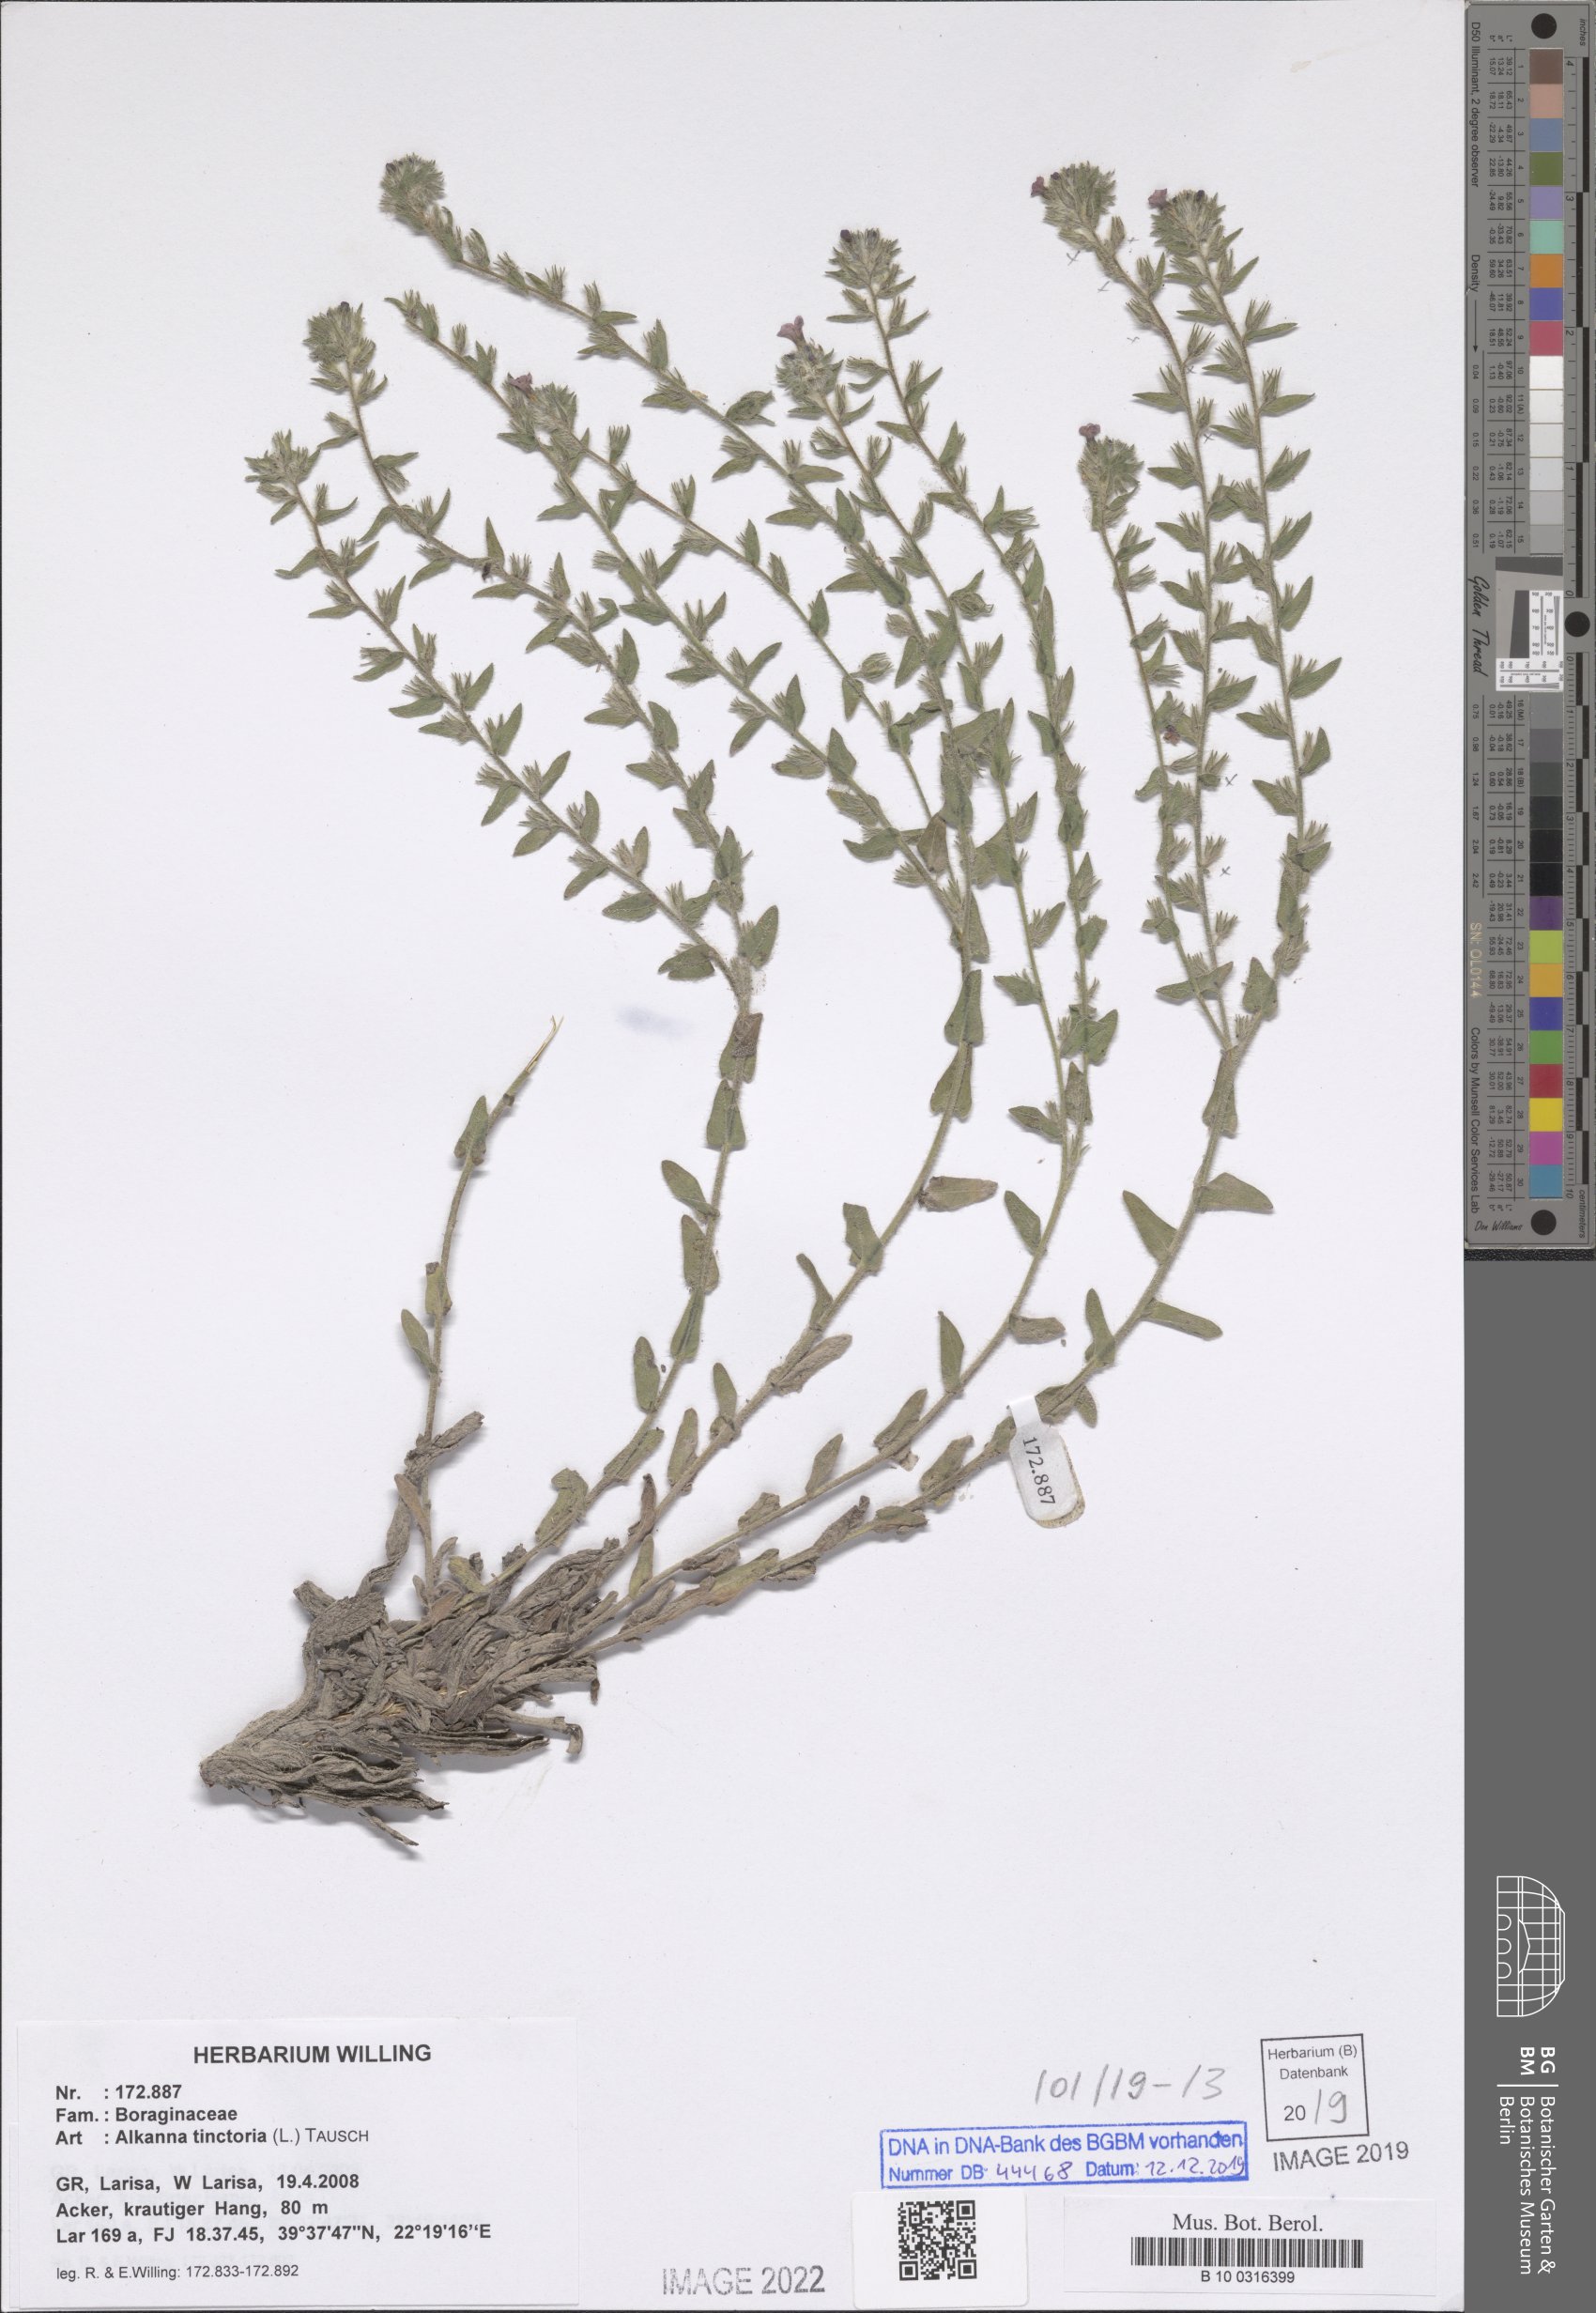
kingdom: Plantae
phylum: Tracheophyta
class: Magnoliopsida
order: Boraginales
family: Boraginaceae
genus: Alkanna
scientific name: Alkanna tinctoria
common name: Dyer's-alkanet
